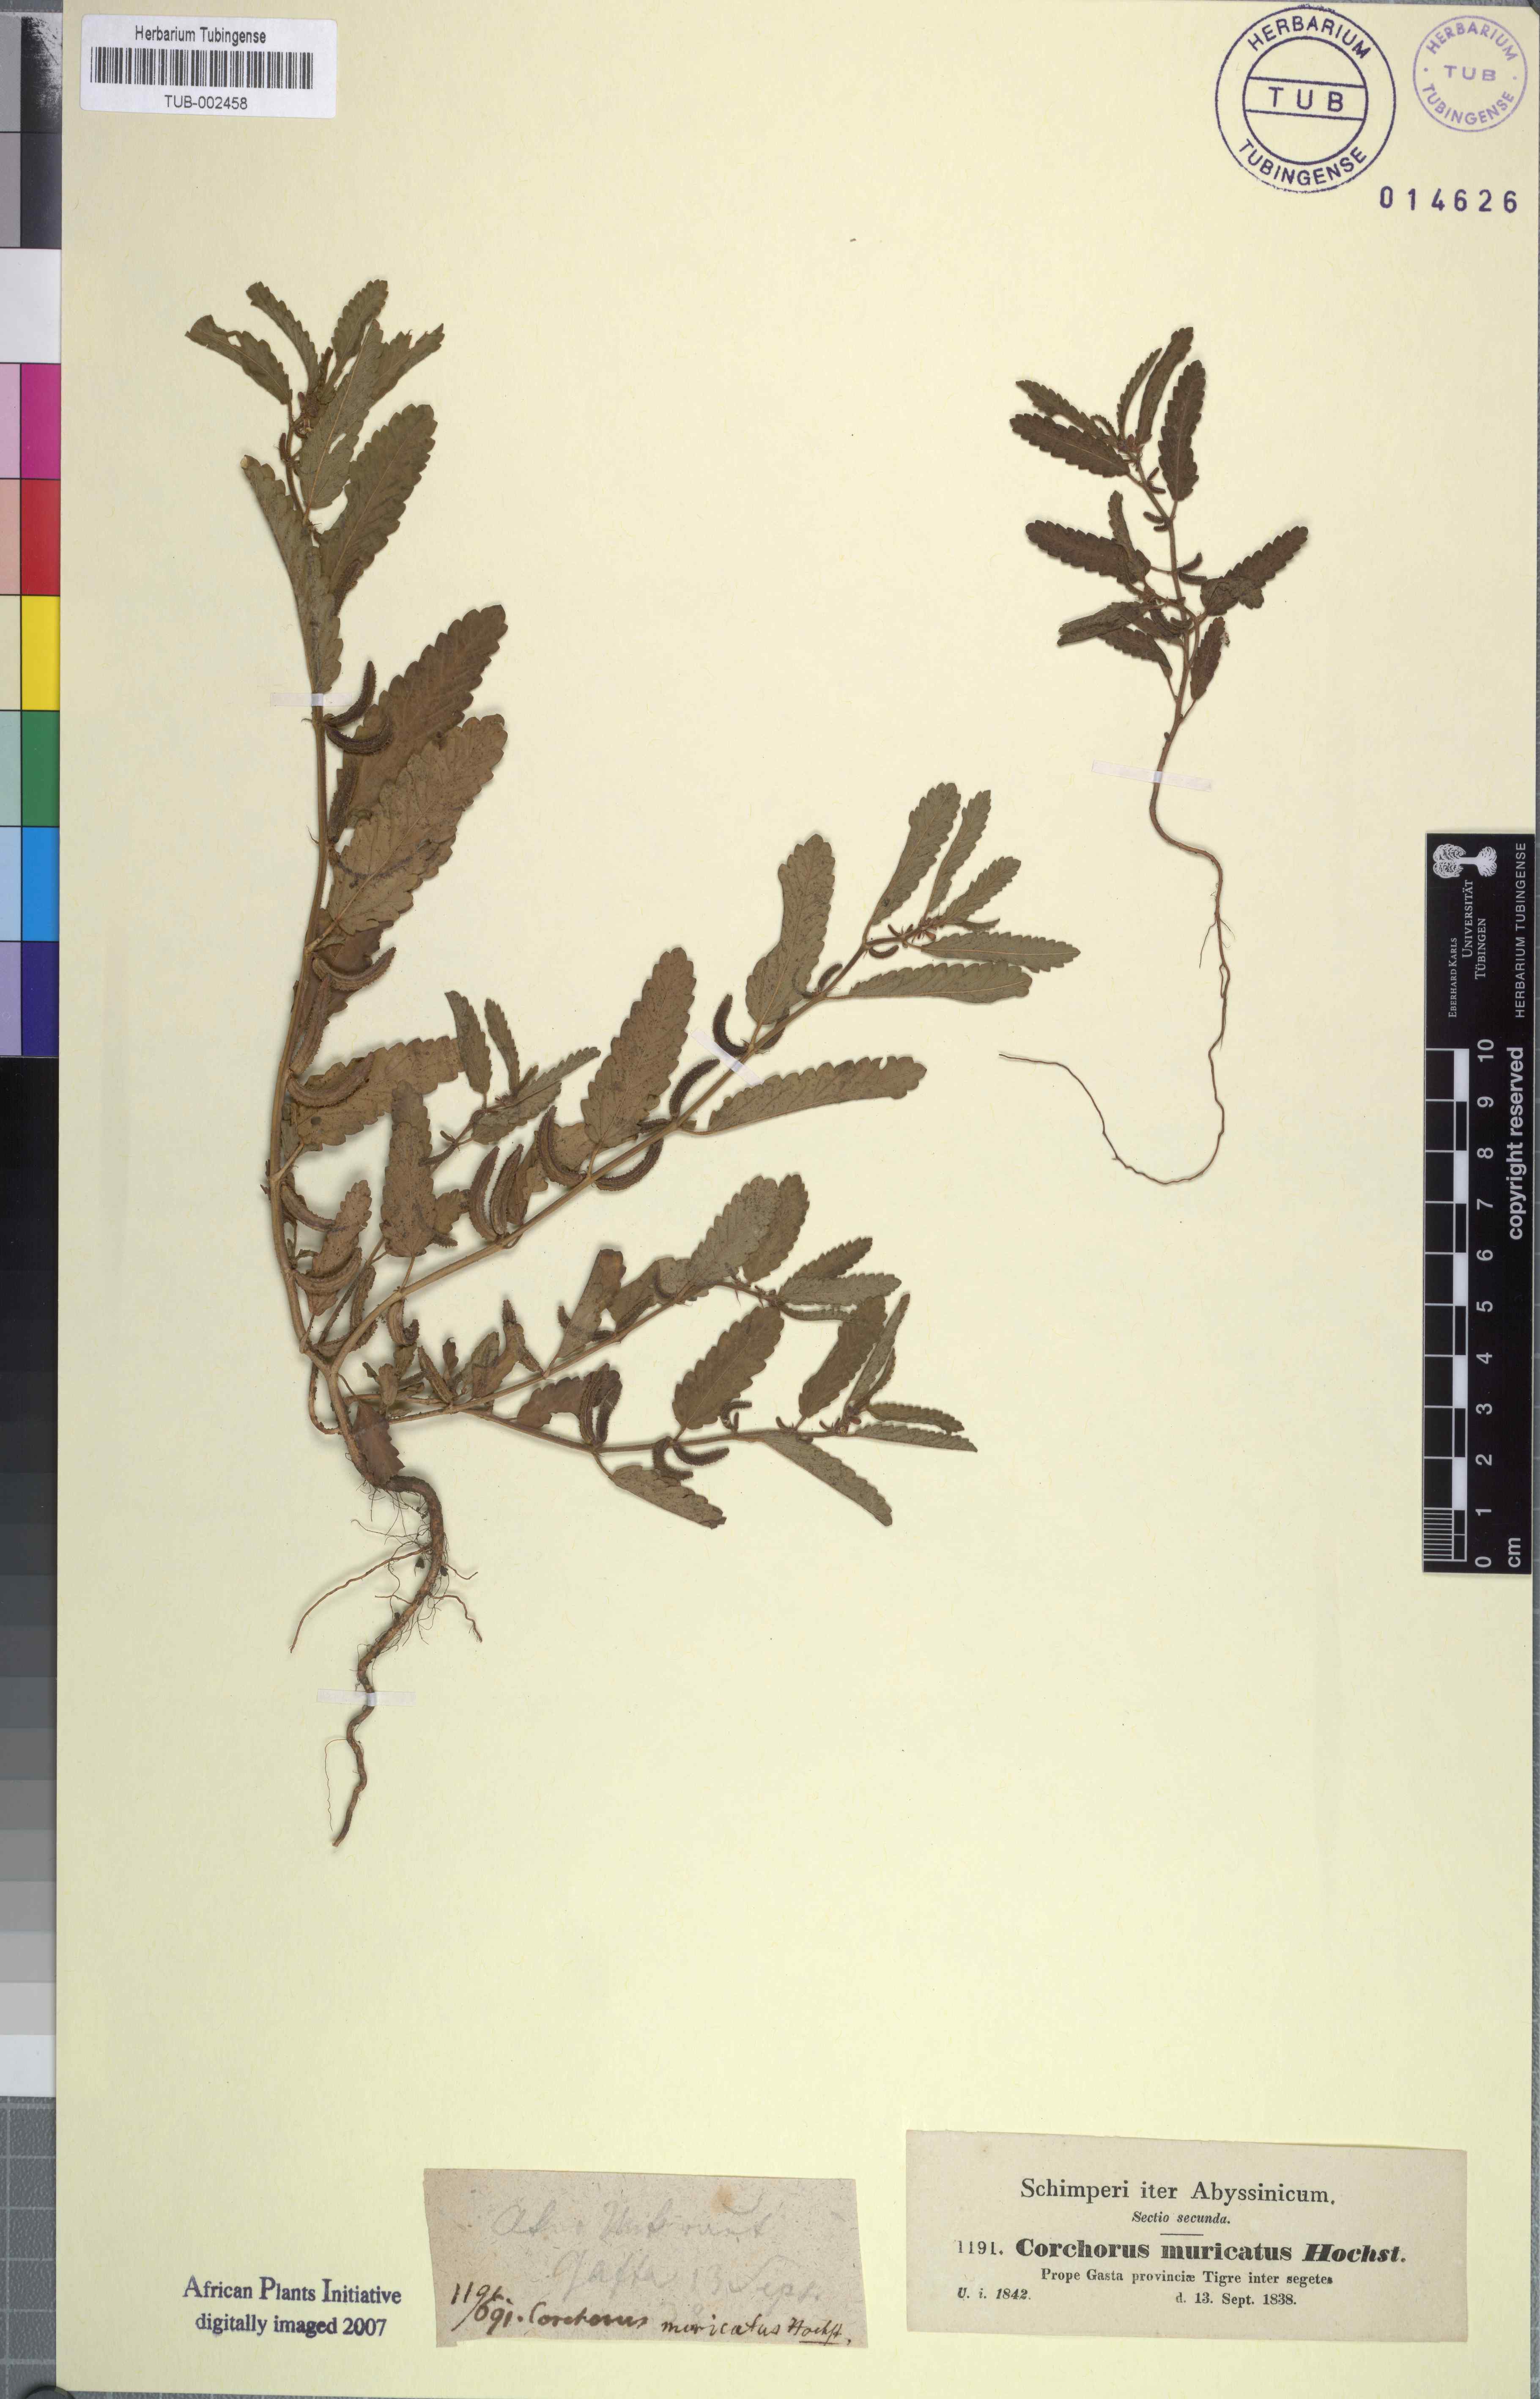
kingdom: Plantae
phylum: Tracheophyta
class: Magnoliopsida
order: Malvales
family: Malvaceae
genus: Corchorus
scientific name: Corchorus schimperi
